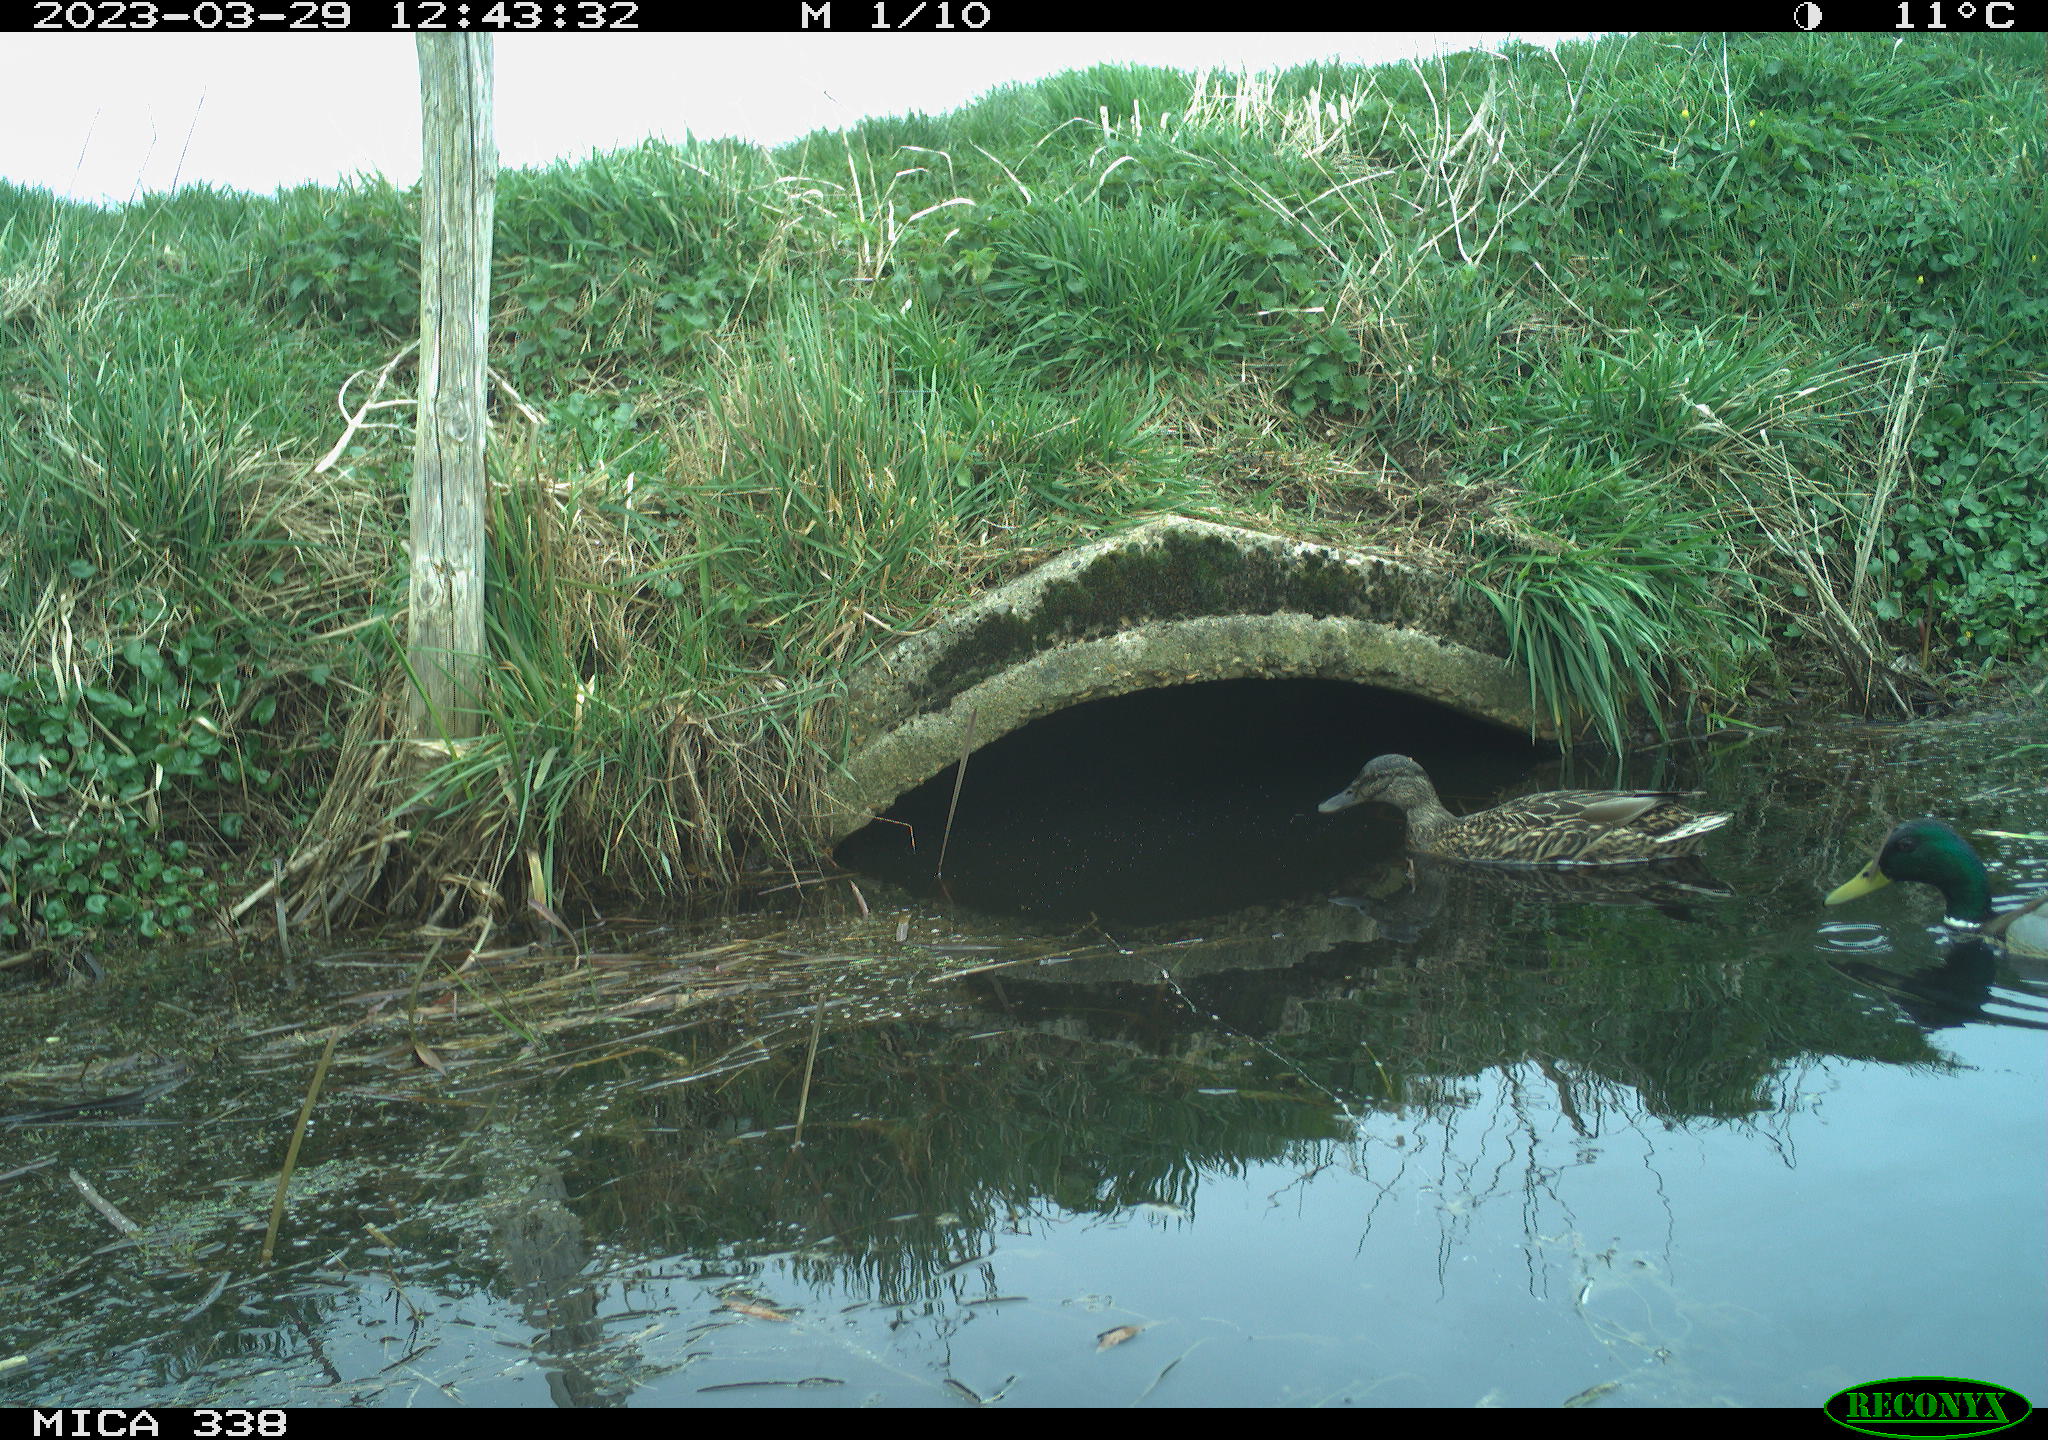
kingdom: Animalia
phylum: Chordata
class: Aves
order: Anseriformes
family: Anatidae
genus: Anas
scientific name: Anas platyrhynchos
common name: Mallard
